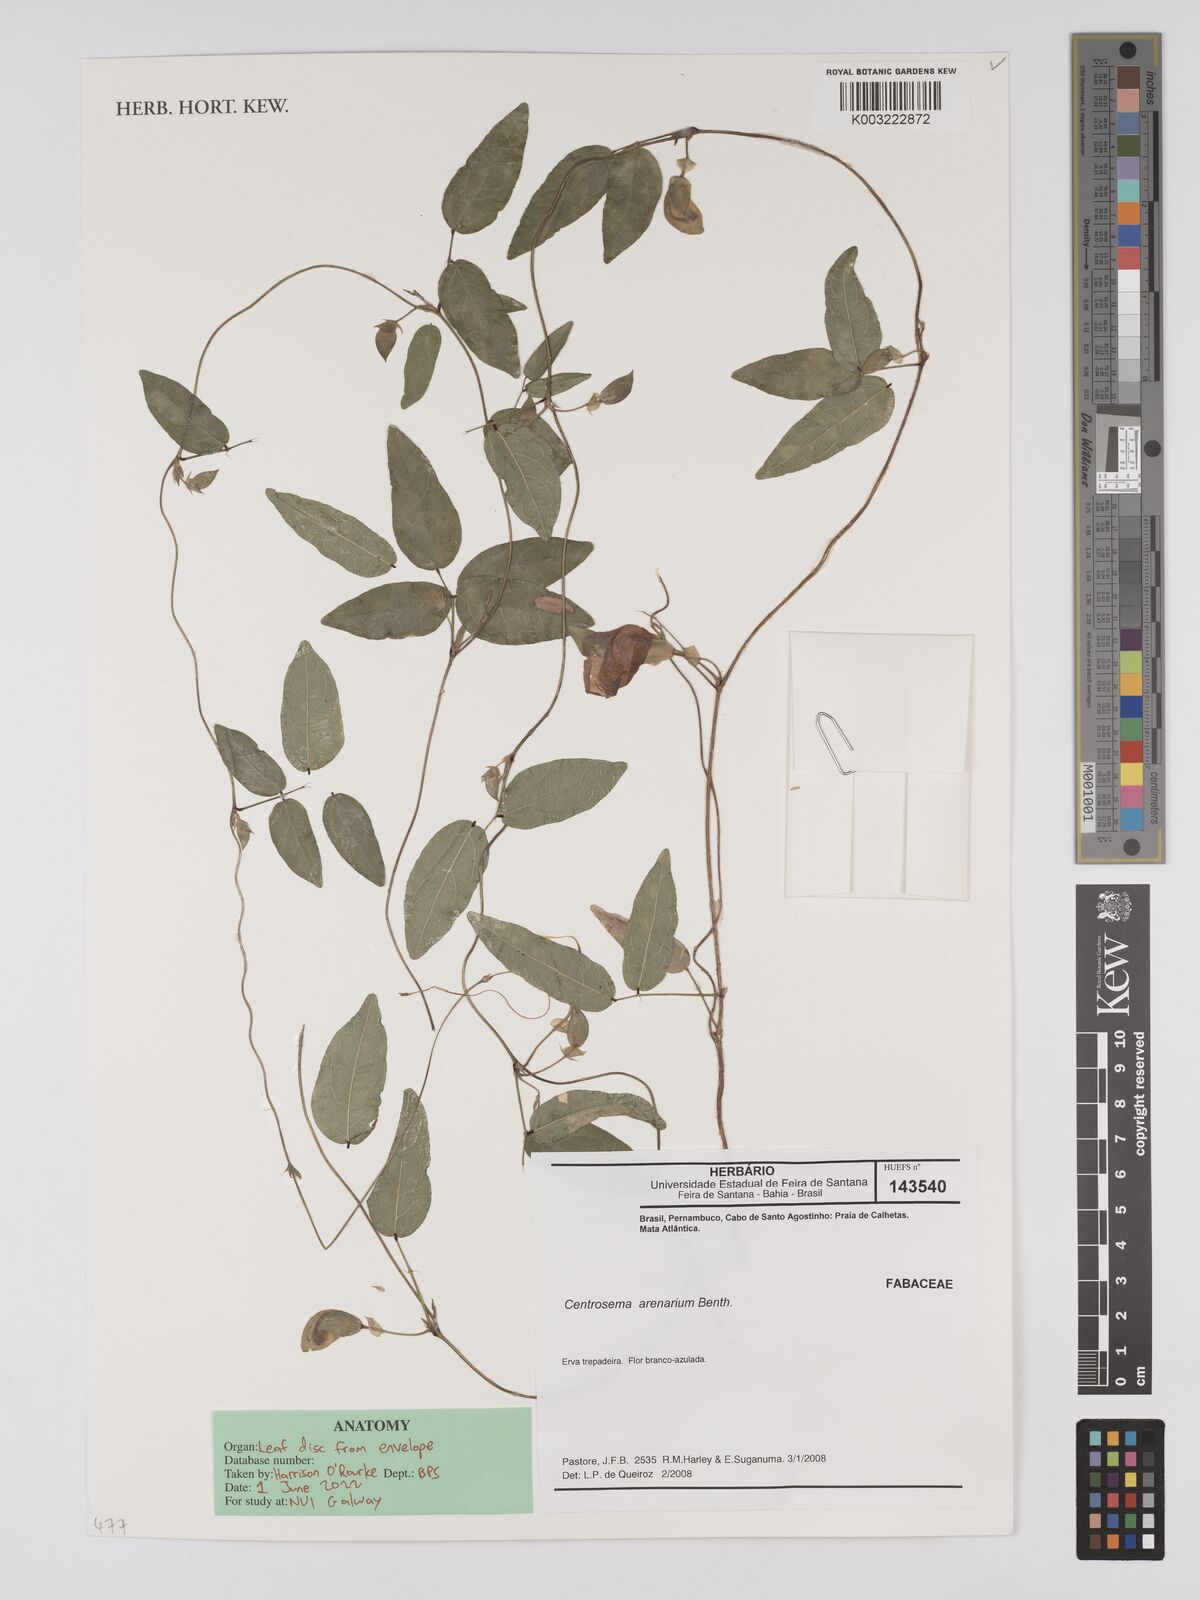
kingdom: Plantae
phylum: Tracheophyta
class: Magnoliopsida
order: Fabales
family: Fabaceae
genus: Centrosema
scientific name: Centrosema arenarium
